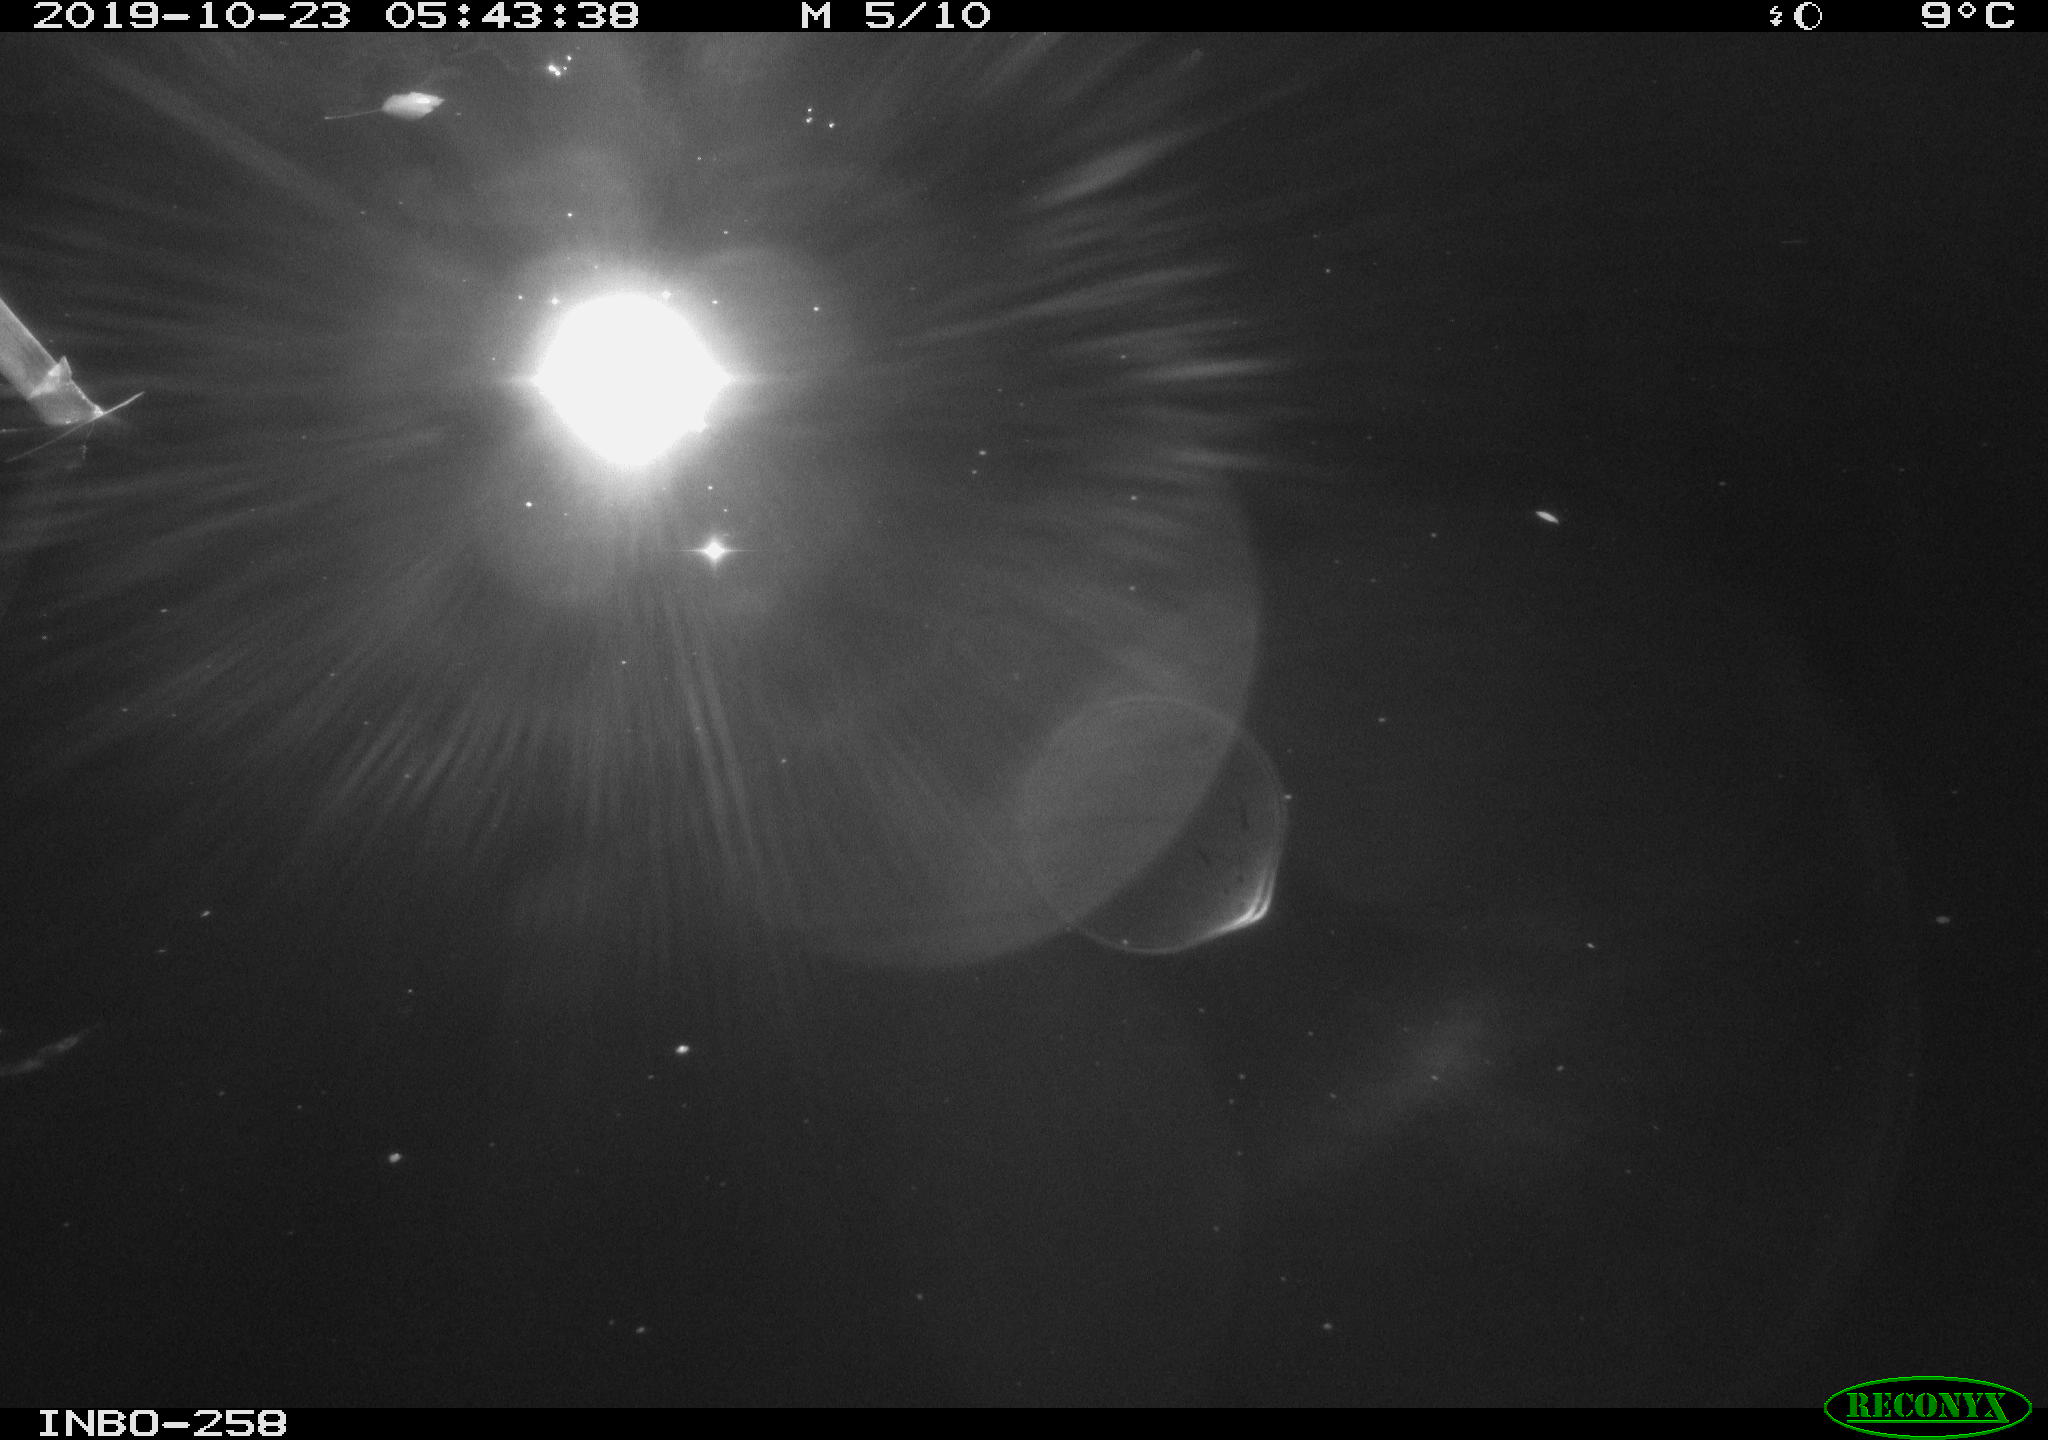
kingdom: Animalia
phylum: Chordata
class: Mammalia
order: Rodentia
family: Muridae
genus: Rattus
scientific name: Rattus norvegicus
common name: Brown rat
